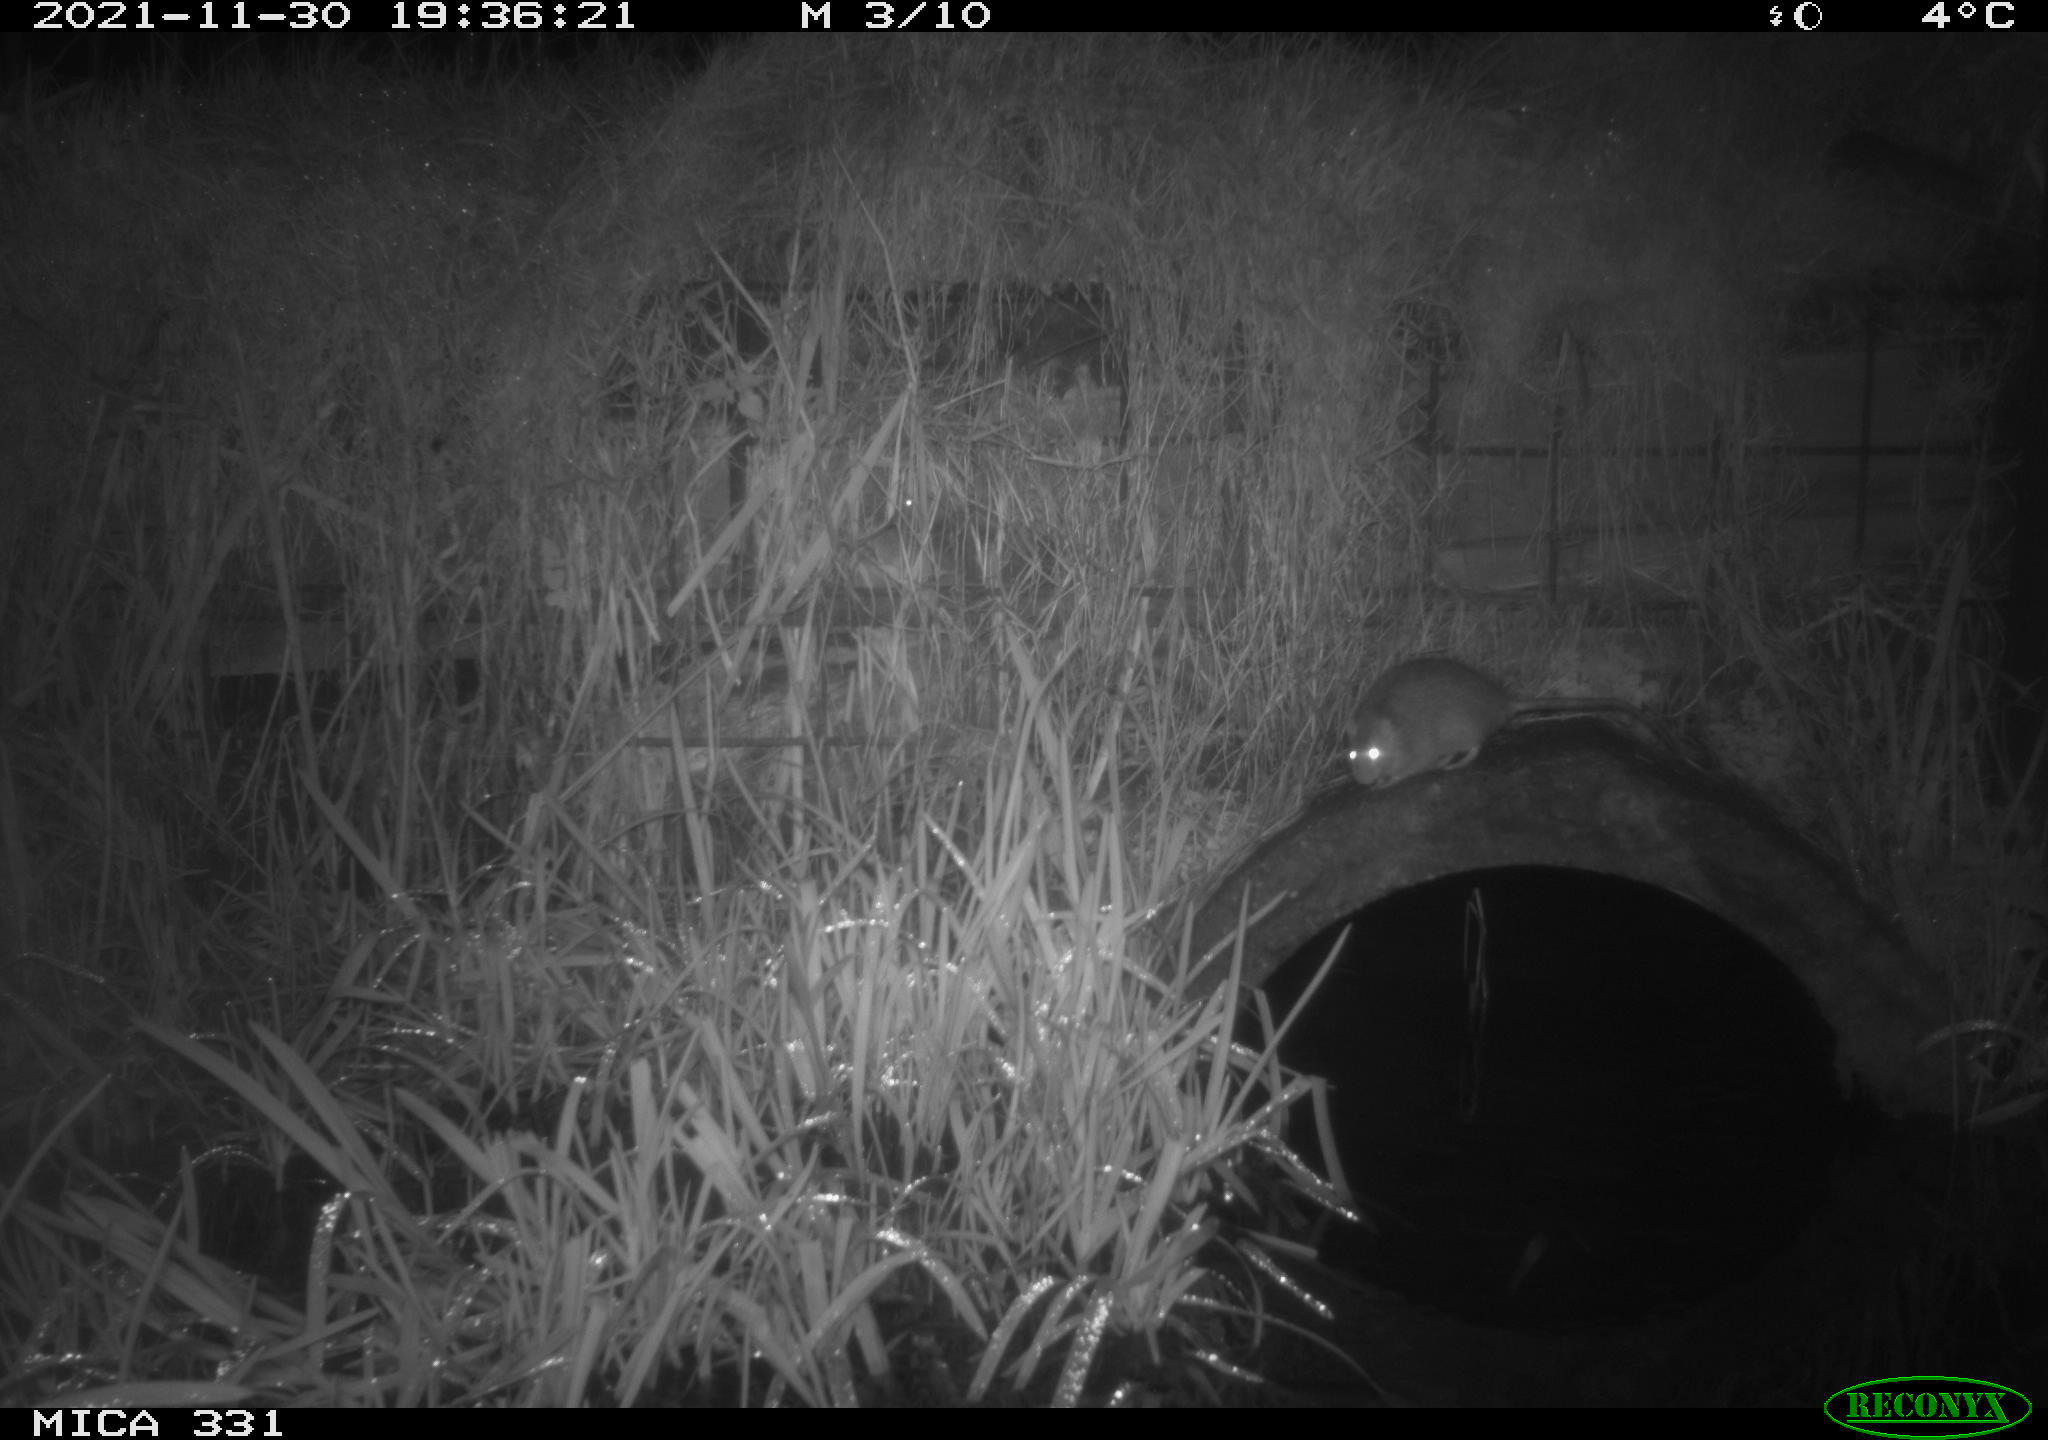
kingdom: Animalia
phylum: Chordata
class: Mammalia
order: Rodentia
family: Muridae
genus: Rattus
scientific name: Rattus norvegicus
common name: Brown rat
